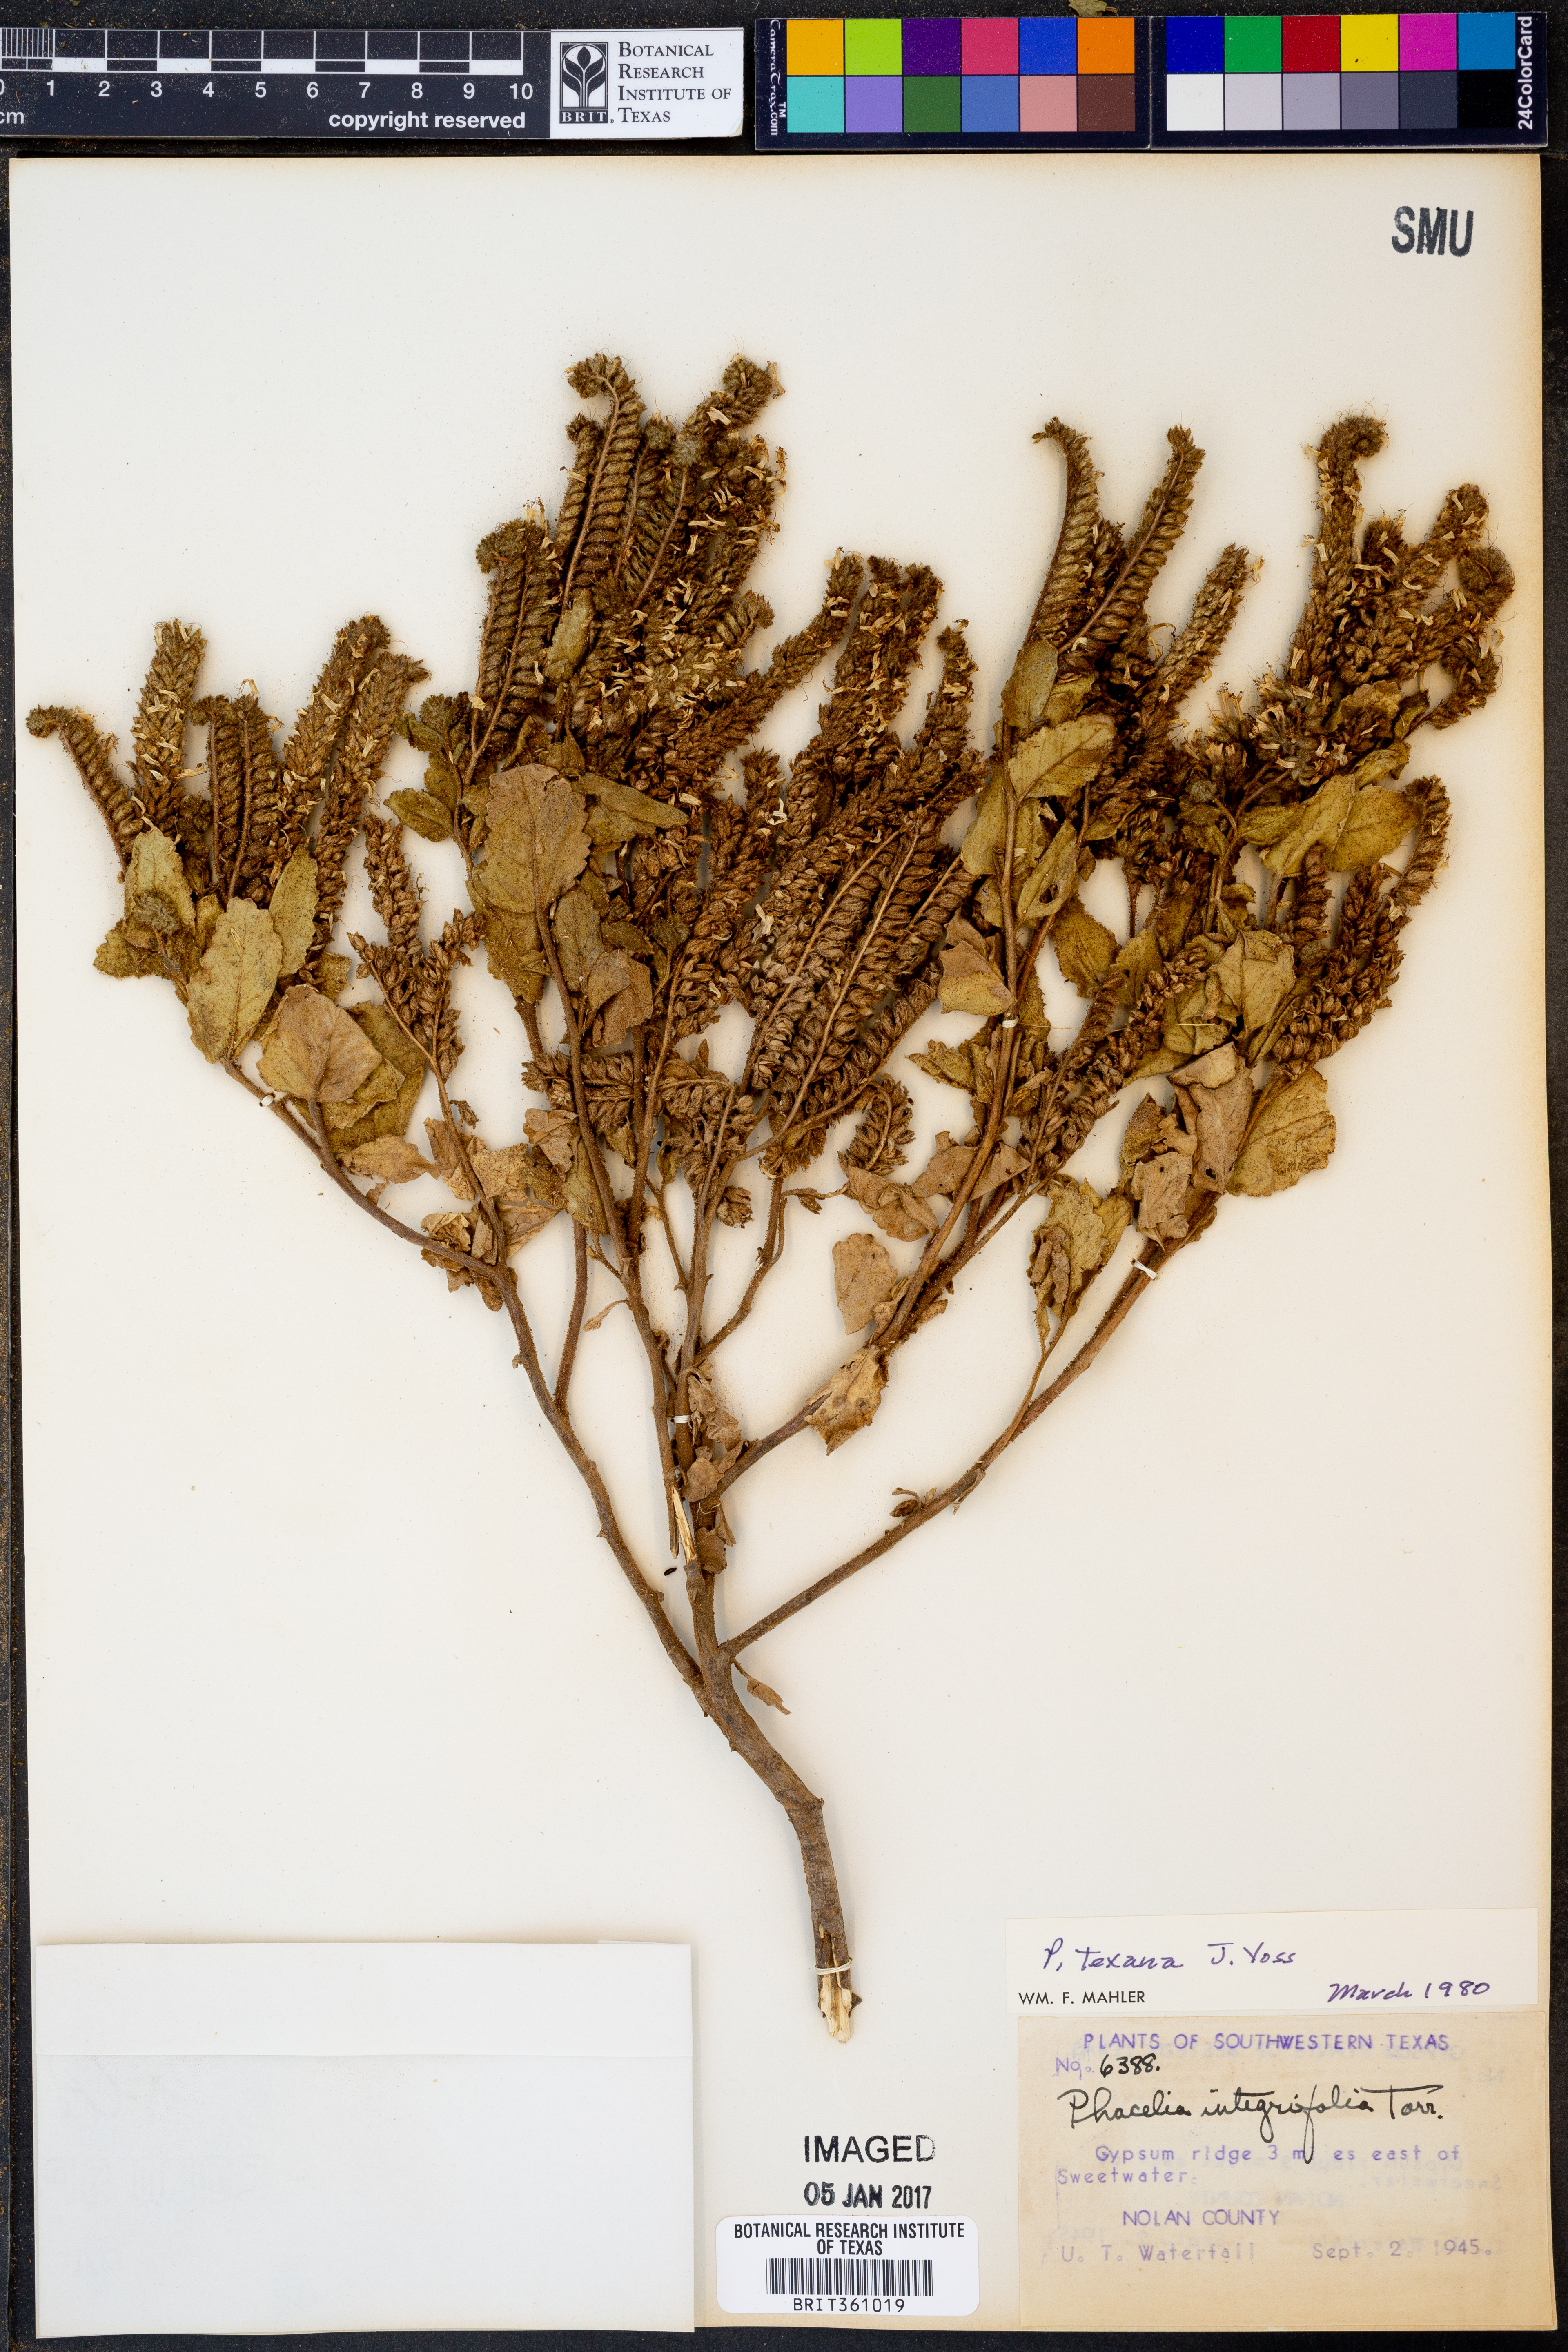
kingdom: Plantae
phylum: Tracheophyta
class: Magnoliopsida
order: Boraginales
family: Hydrophyllaceae
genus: Phacelia
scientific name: Phacelia integrifolia
